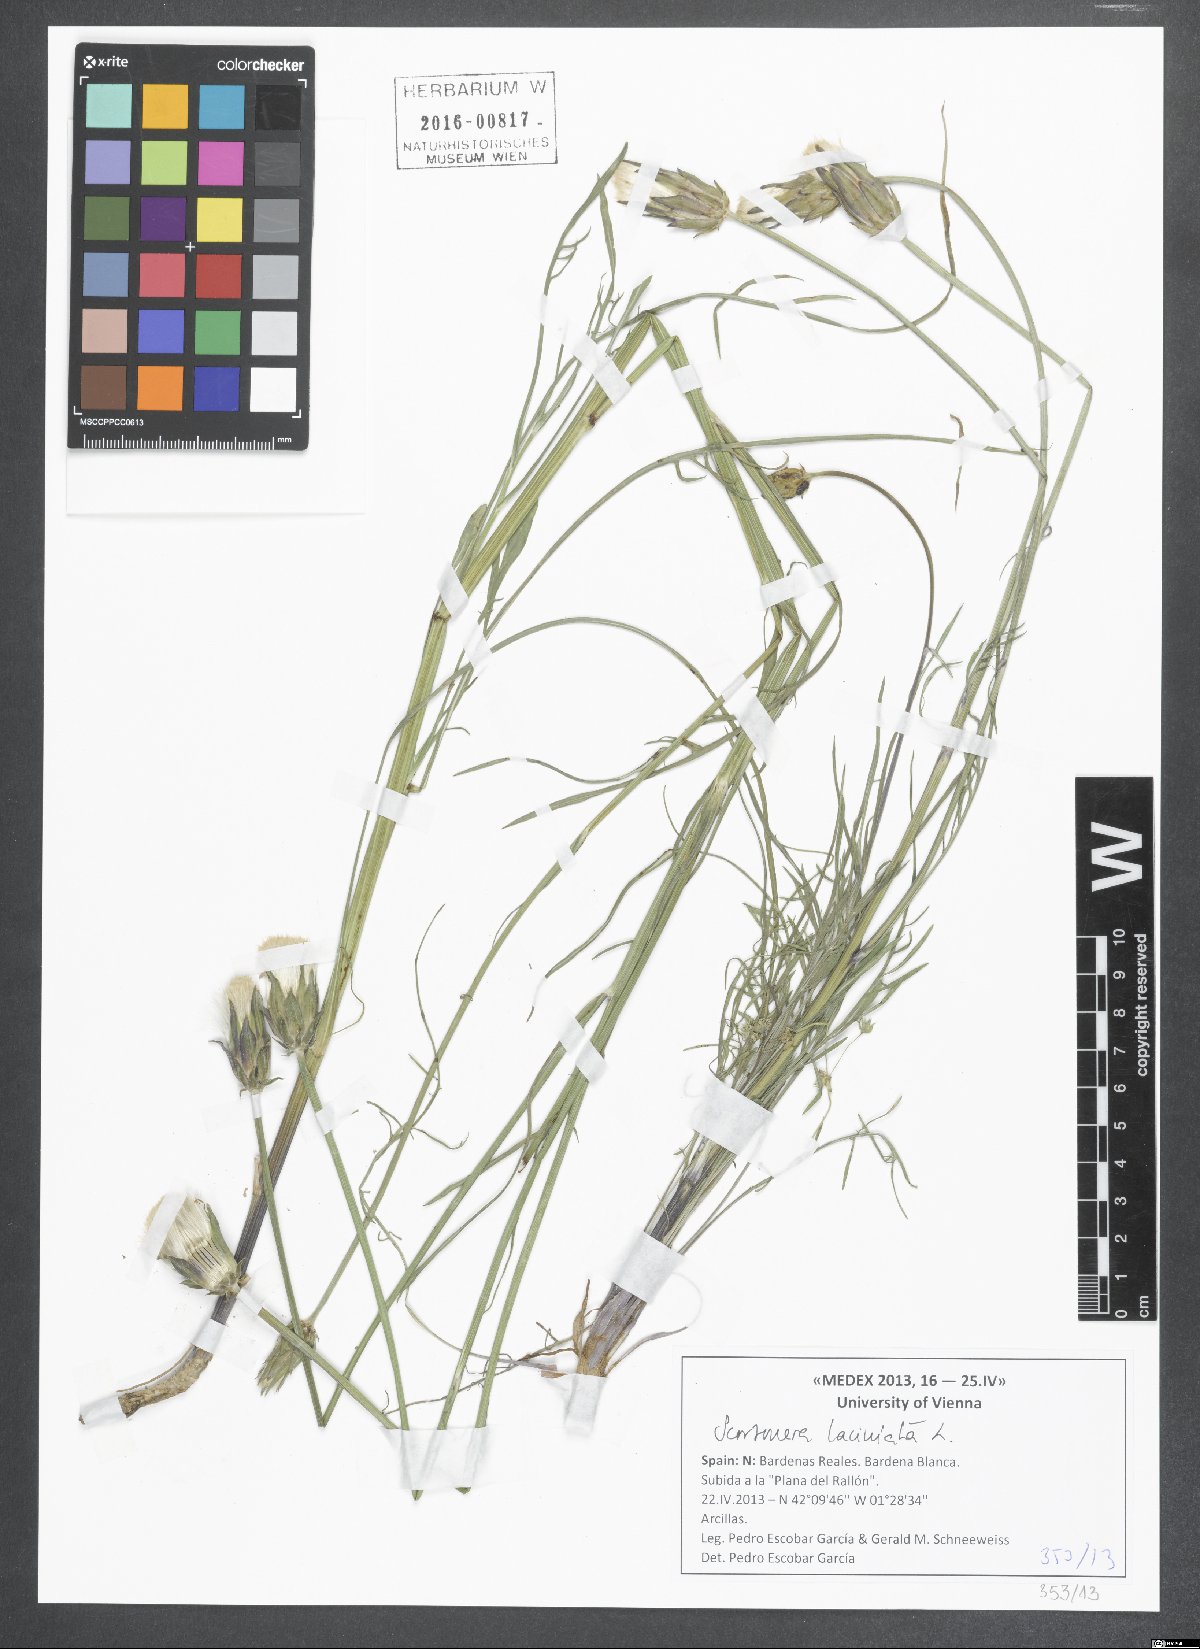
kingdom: Plantae
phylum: Tracheophyta
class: Magnoliopsida
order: Asterales
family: Asteraceae
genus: Scorzonera
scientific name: Scorzonera laciniata
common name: Cutleaf vipergrass
